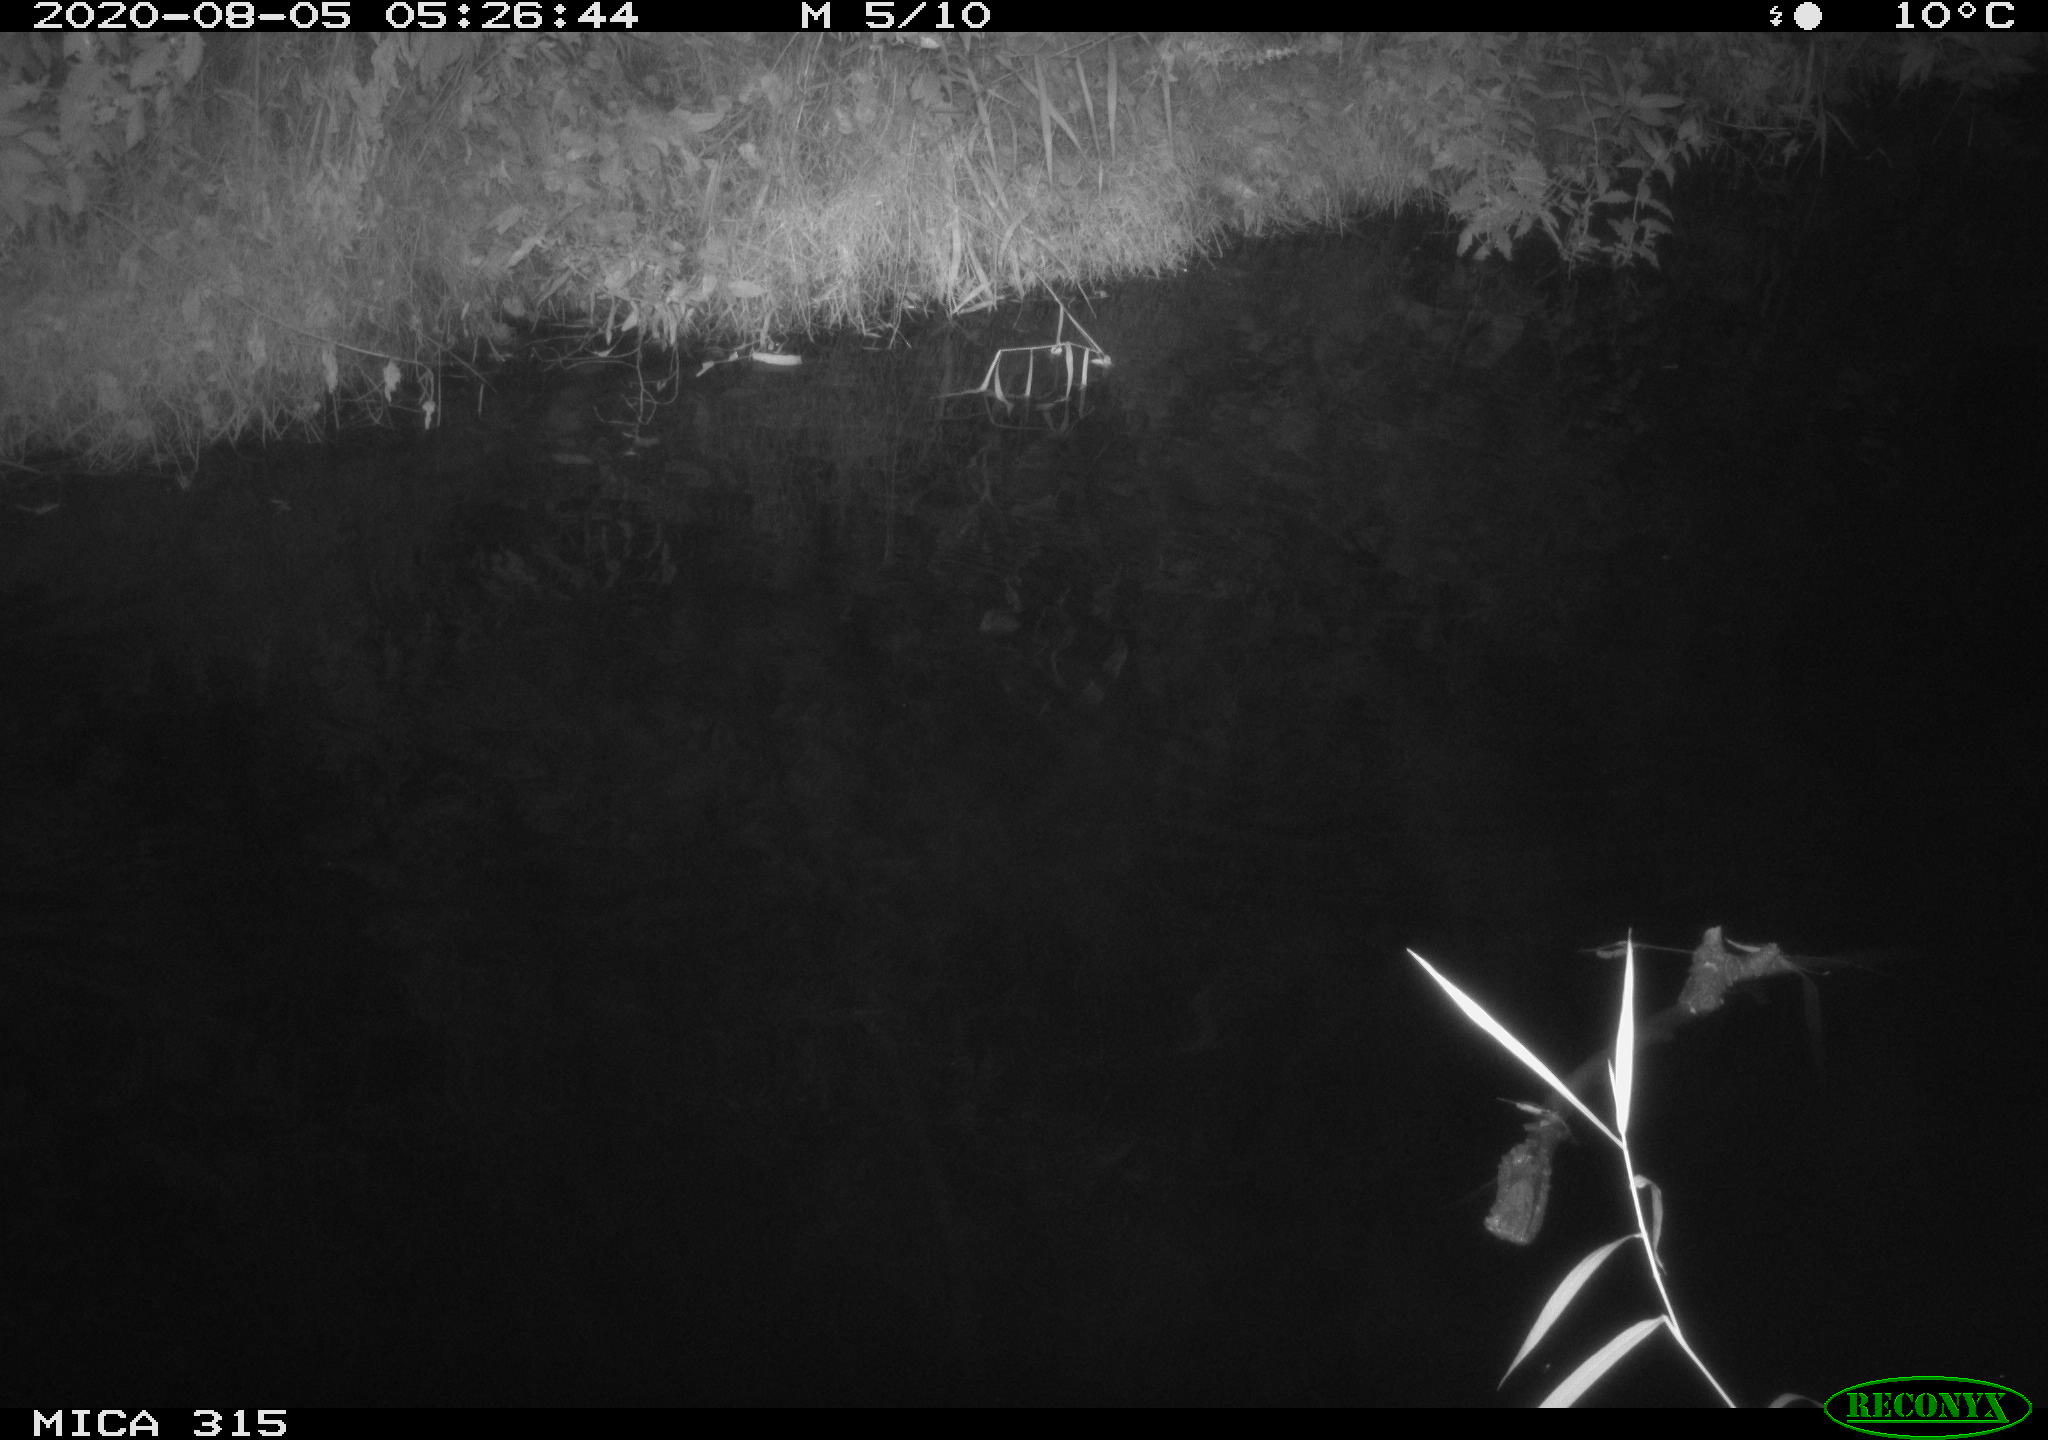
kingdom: Animalia
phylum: Chordata
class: Aves
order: Anseriformes
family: Anatidae
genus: Anas
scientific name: Anas platyrhynchos
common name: Mallard
